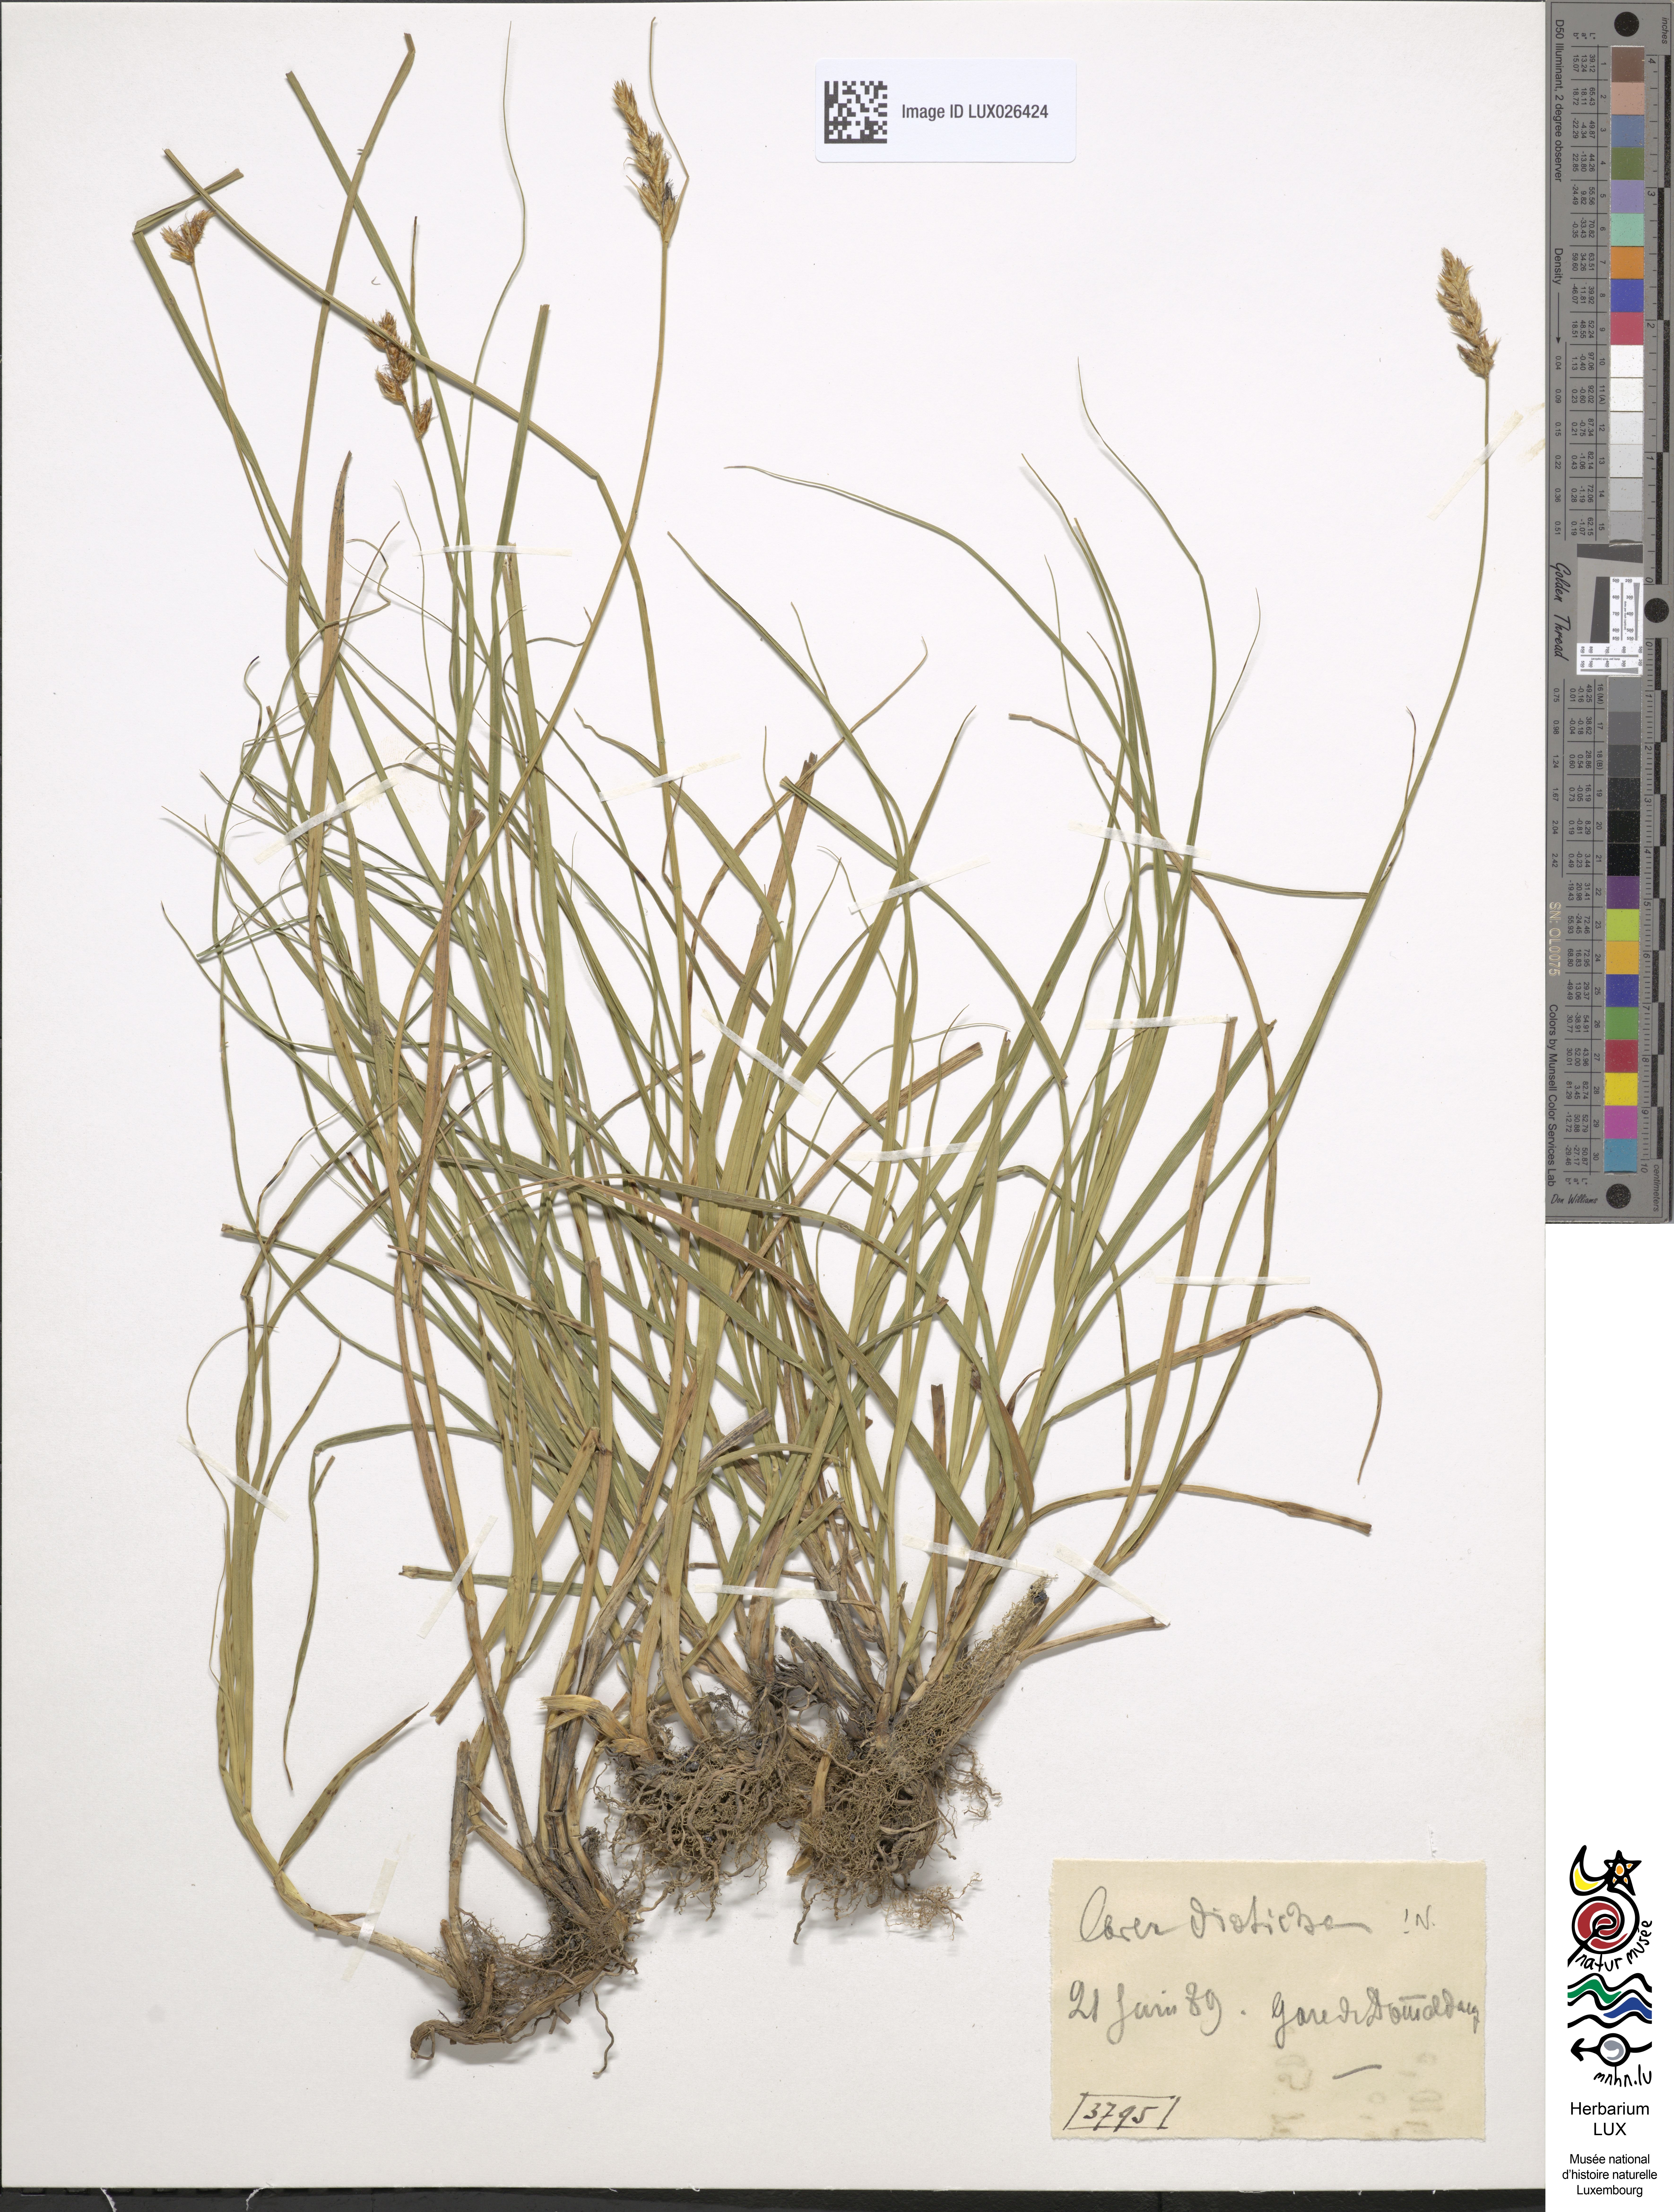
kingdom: Plantae
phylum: Tracheophyta
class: Liliopsida
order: Poales
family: Cyperaceae
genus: Carex
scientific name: Carex disticha
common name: Brown sedge
